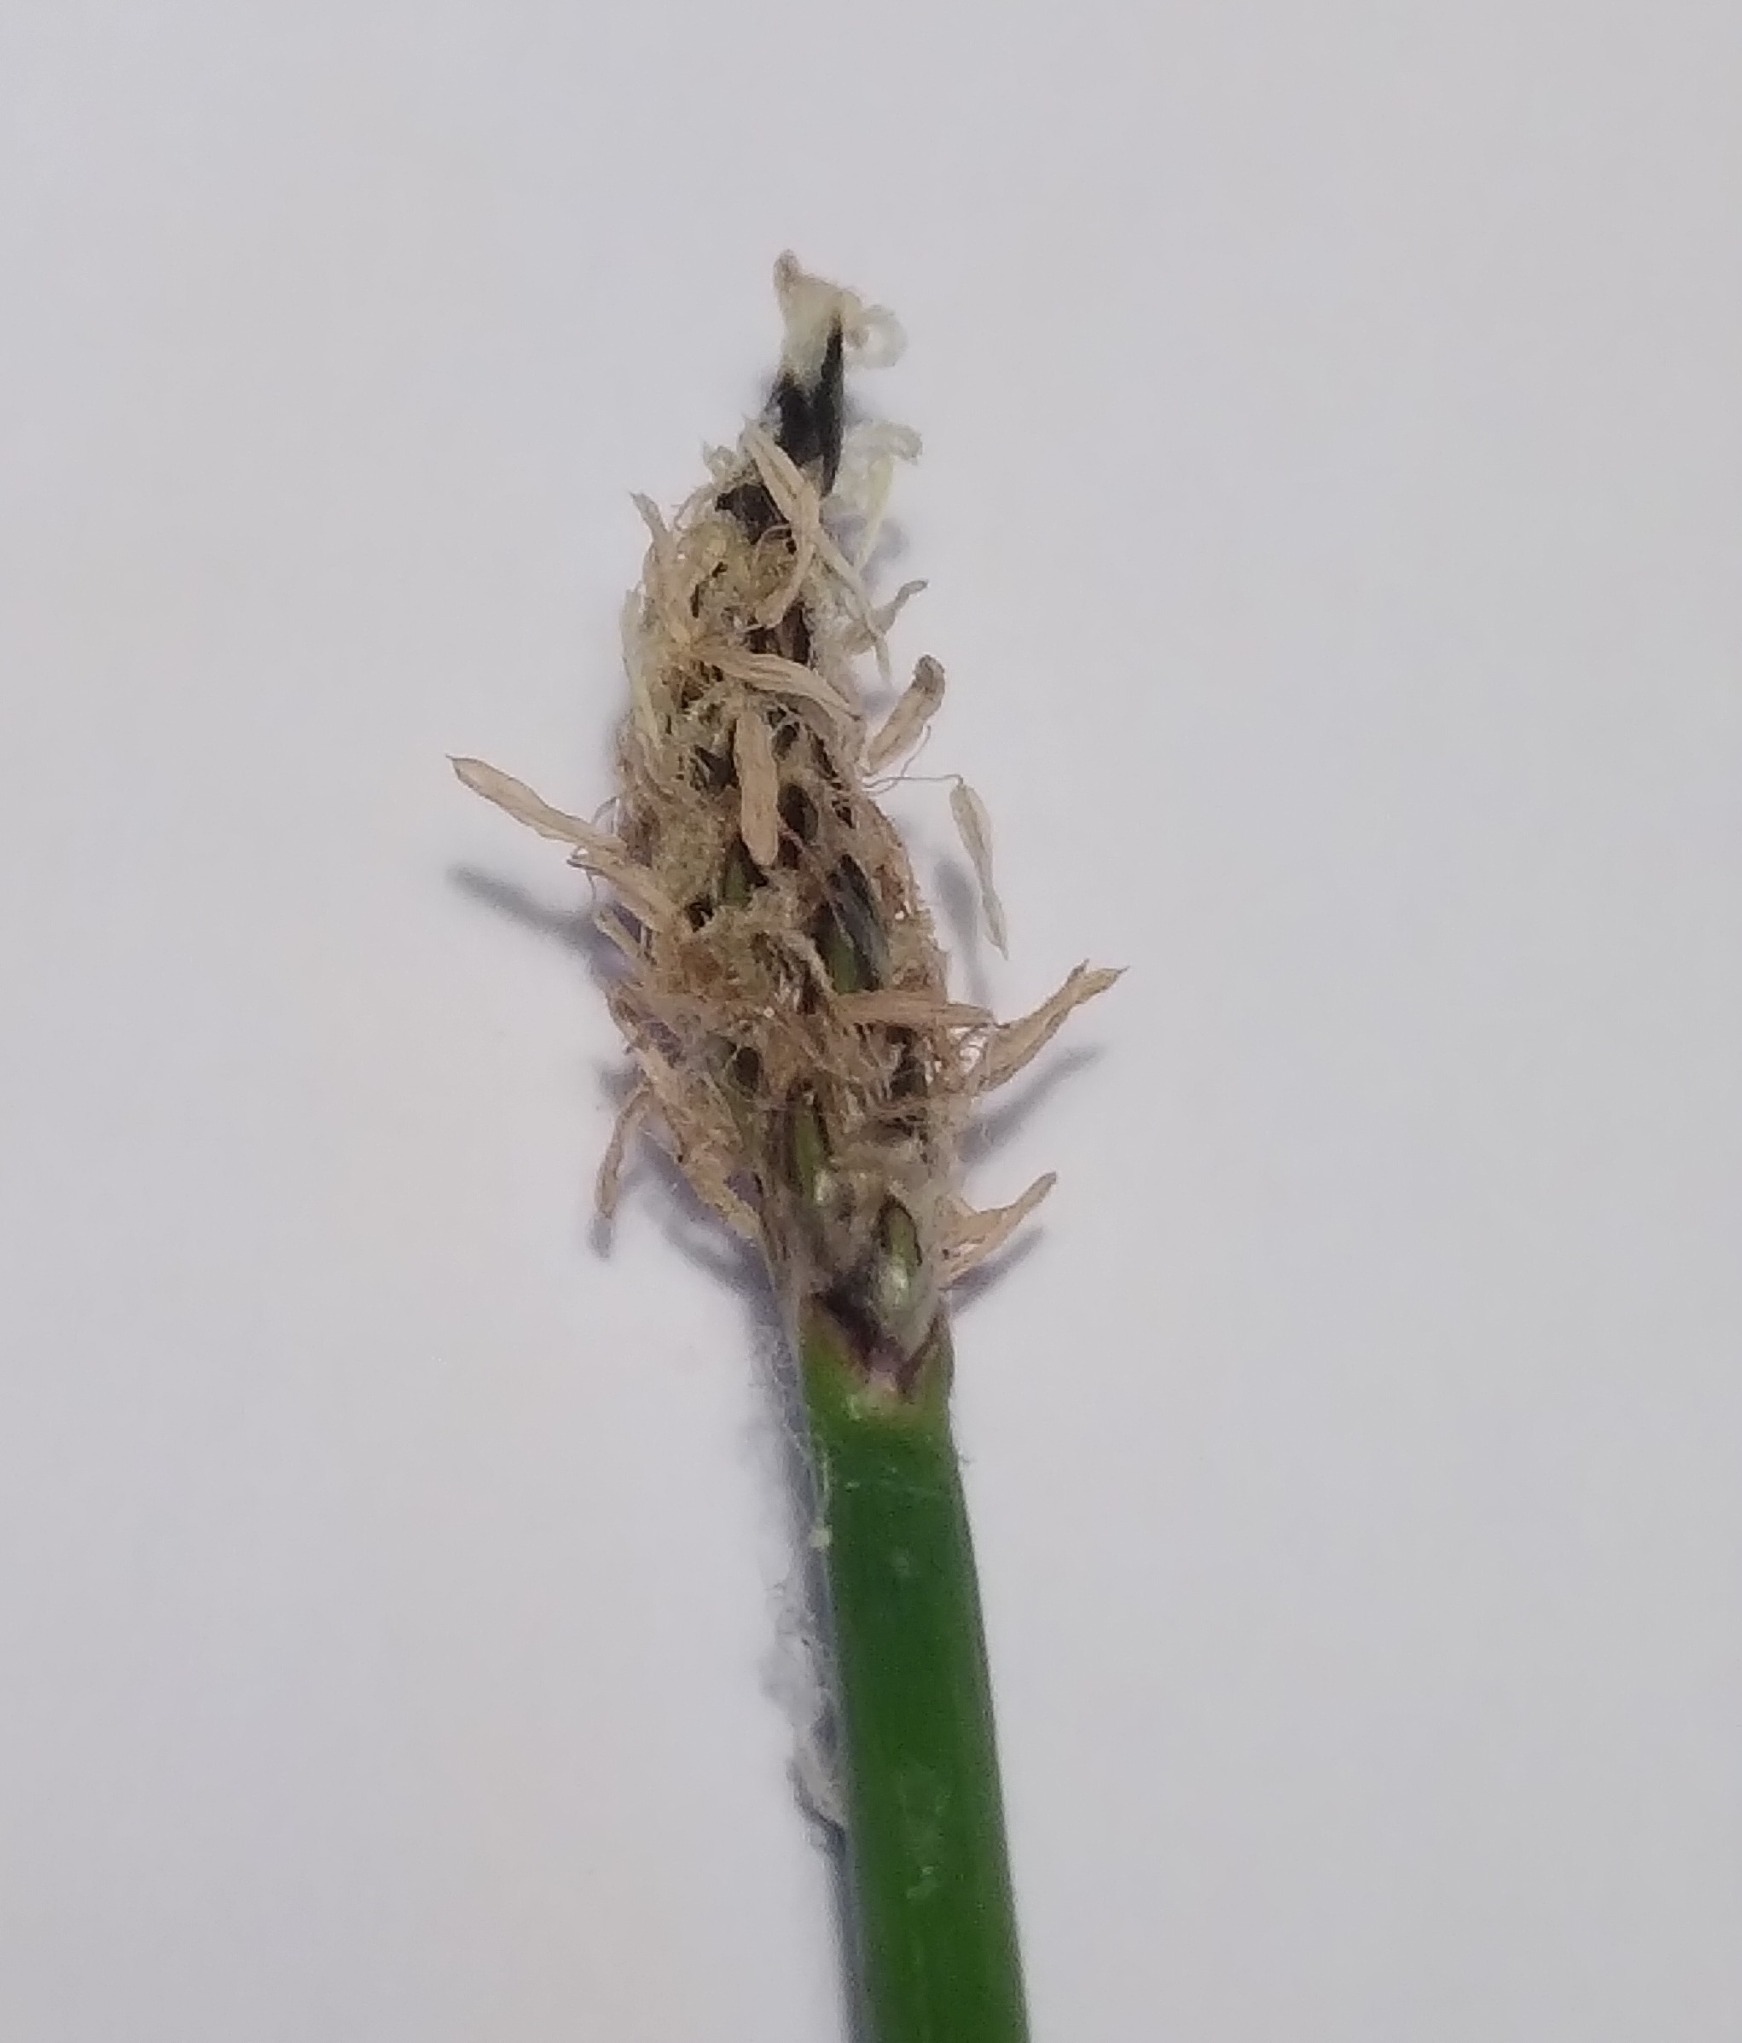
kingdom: Plantae
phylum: Tracheophyta
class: Liliopsida
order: Poales
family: Cyperaceae
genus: Eleocharis
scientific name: Eleocharis palustris
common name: Almindelig sumpstrå
